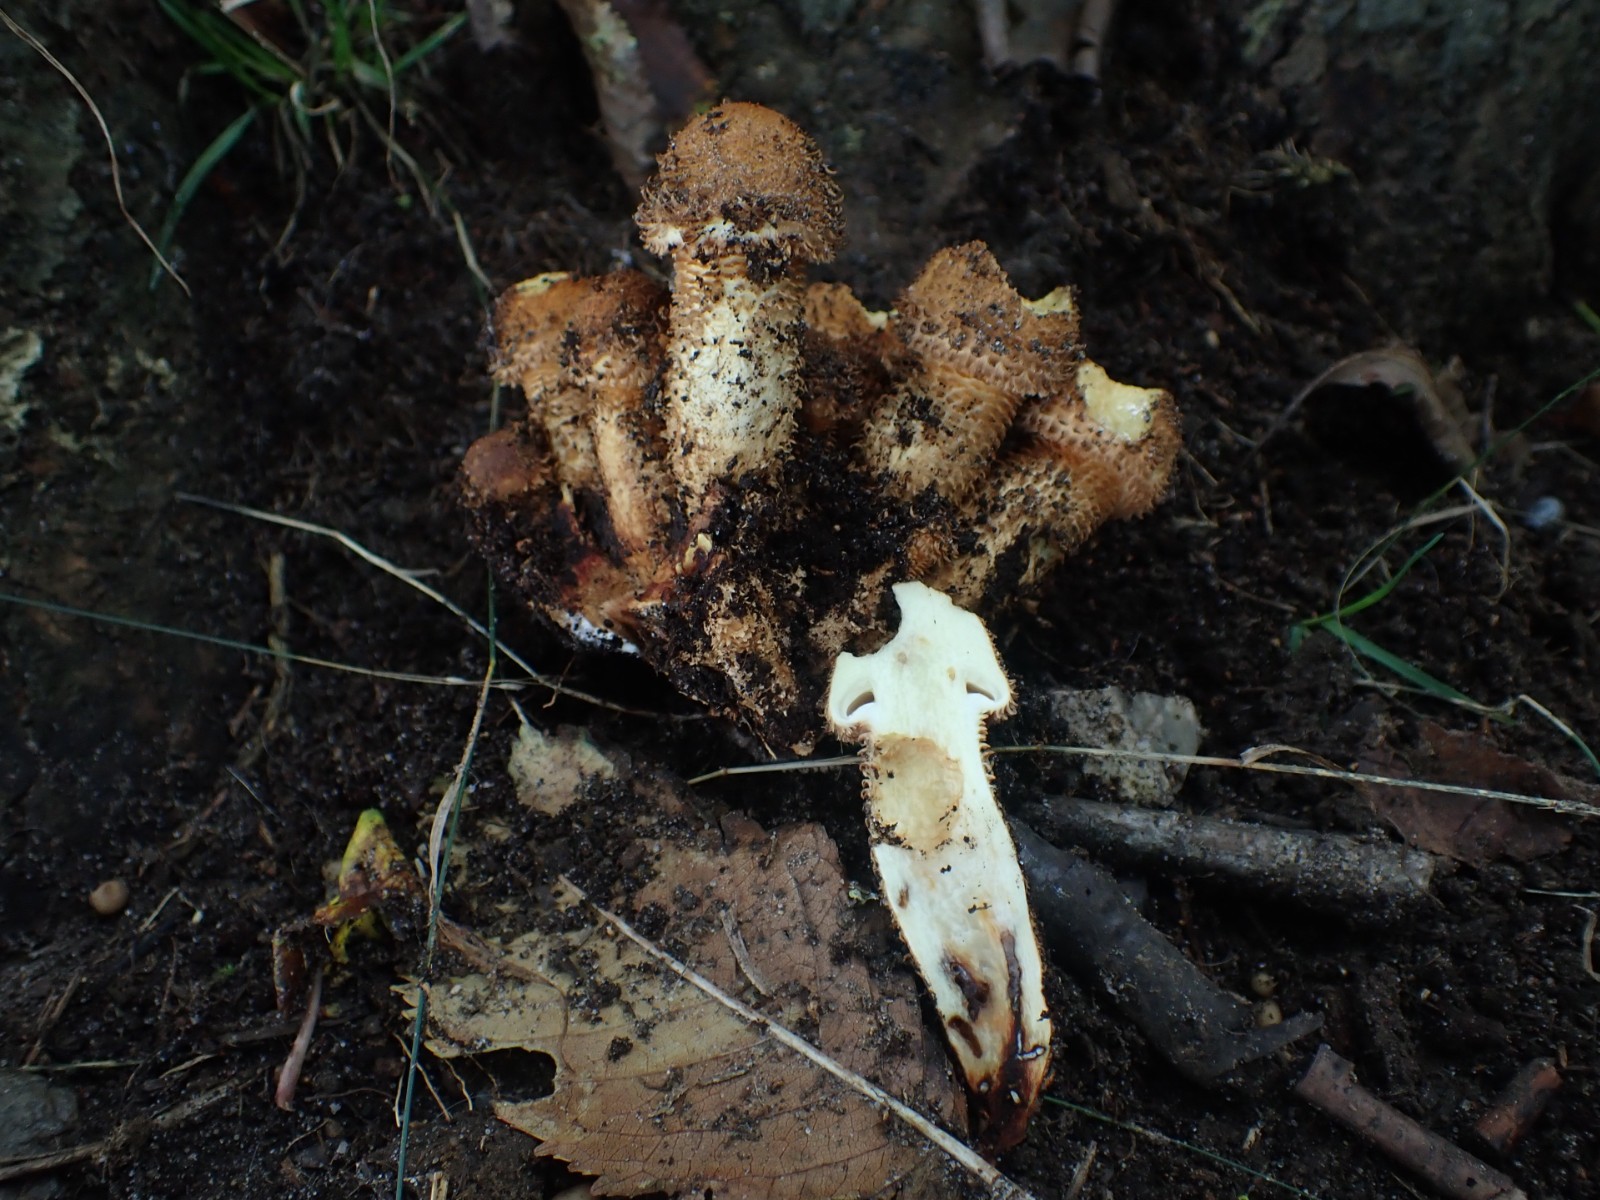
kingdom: Fungi
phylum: Basidiomycota
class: Agaricomycetes
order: Agaricales
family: Strophariaceae
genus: Pholiota
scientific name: Pholiota squarrosa
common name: krumskællet skælhat
